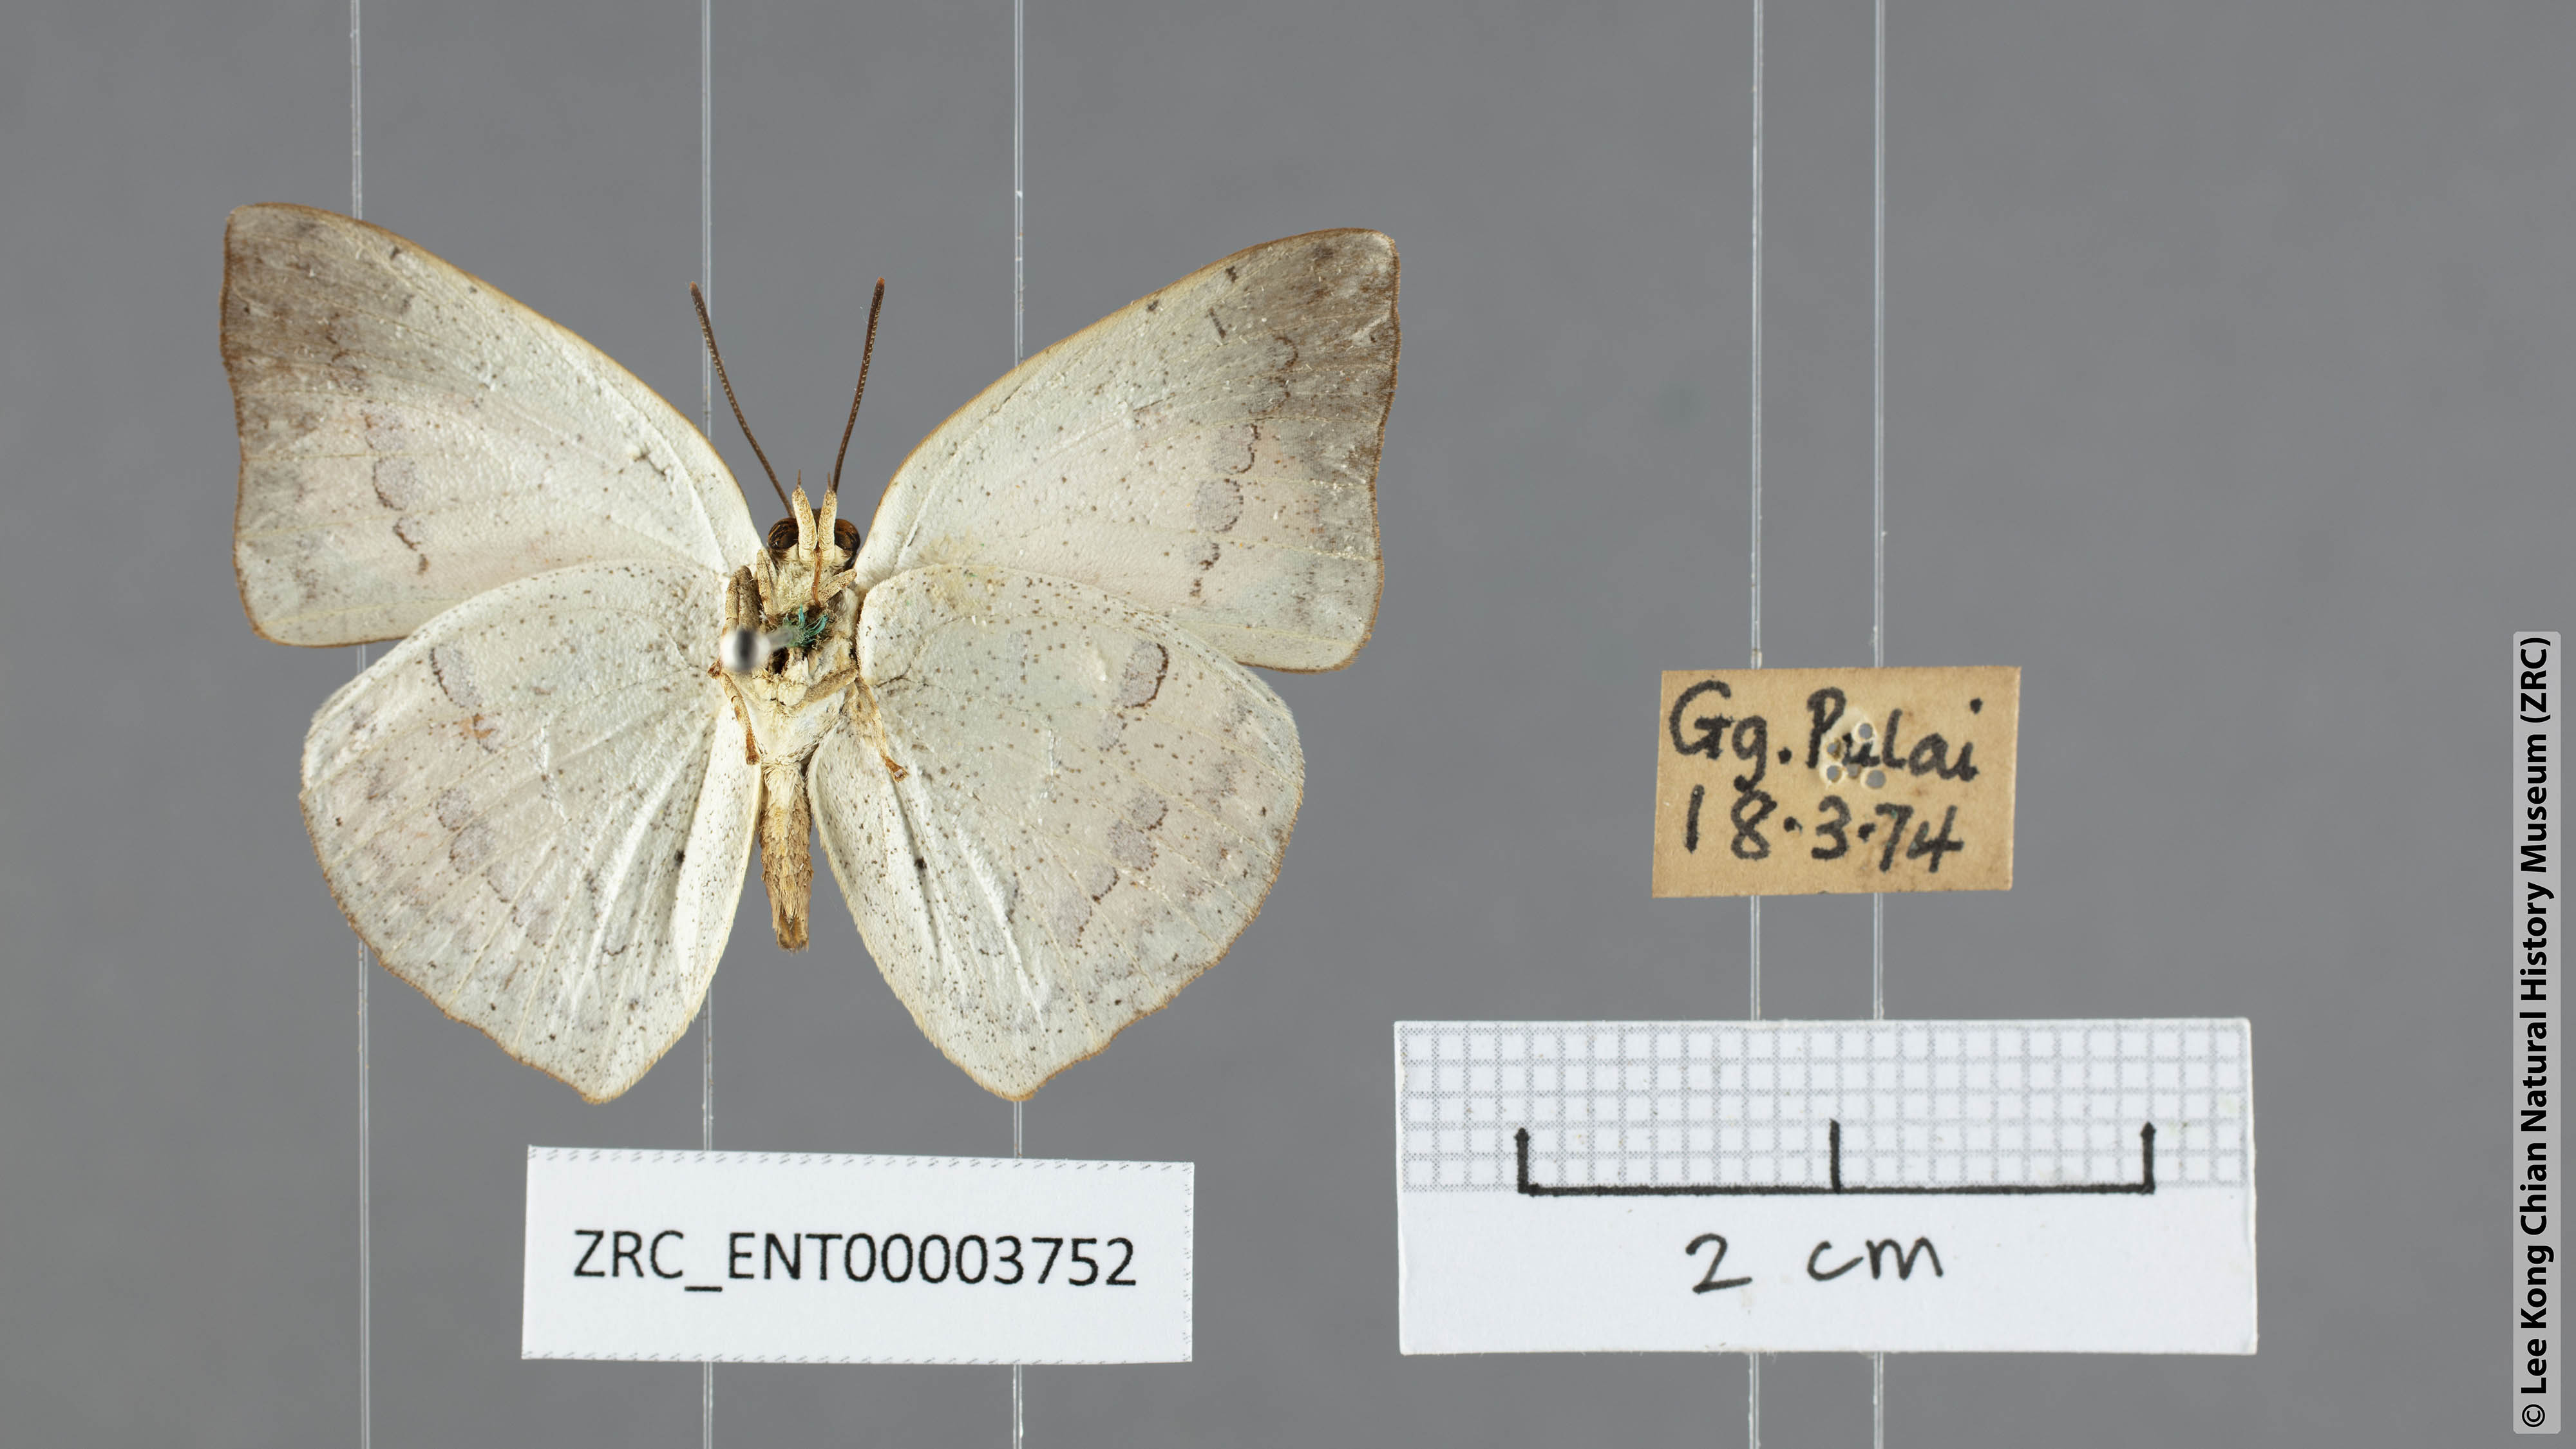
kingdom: Animalia
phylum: Arthropoda
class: Insecta
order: Lepidoptera
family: Lycaenidae
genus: Curetis
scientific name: Curetis santana
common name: Malayan sunbeam
